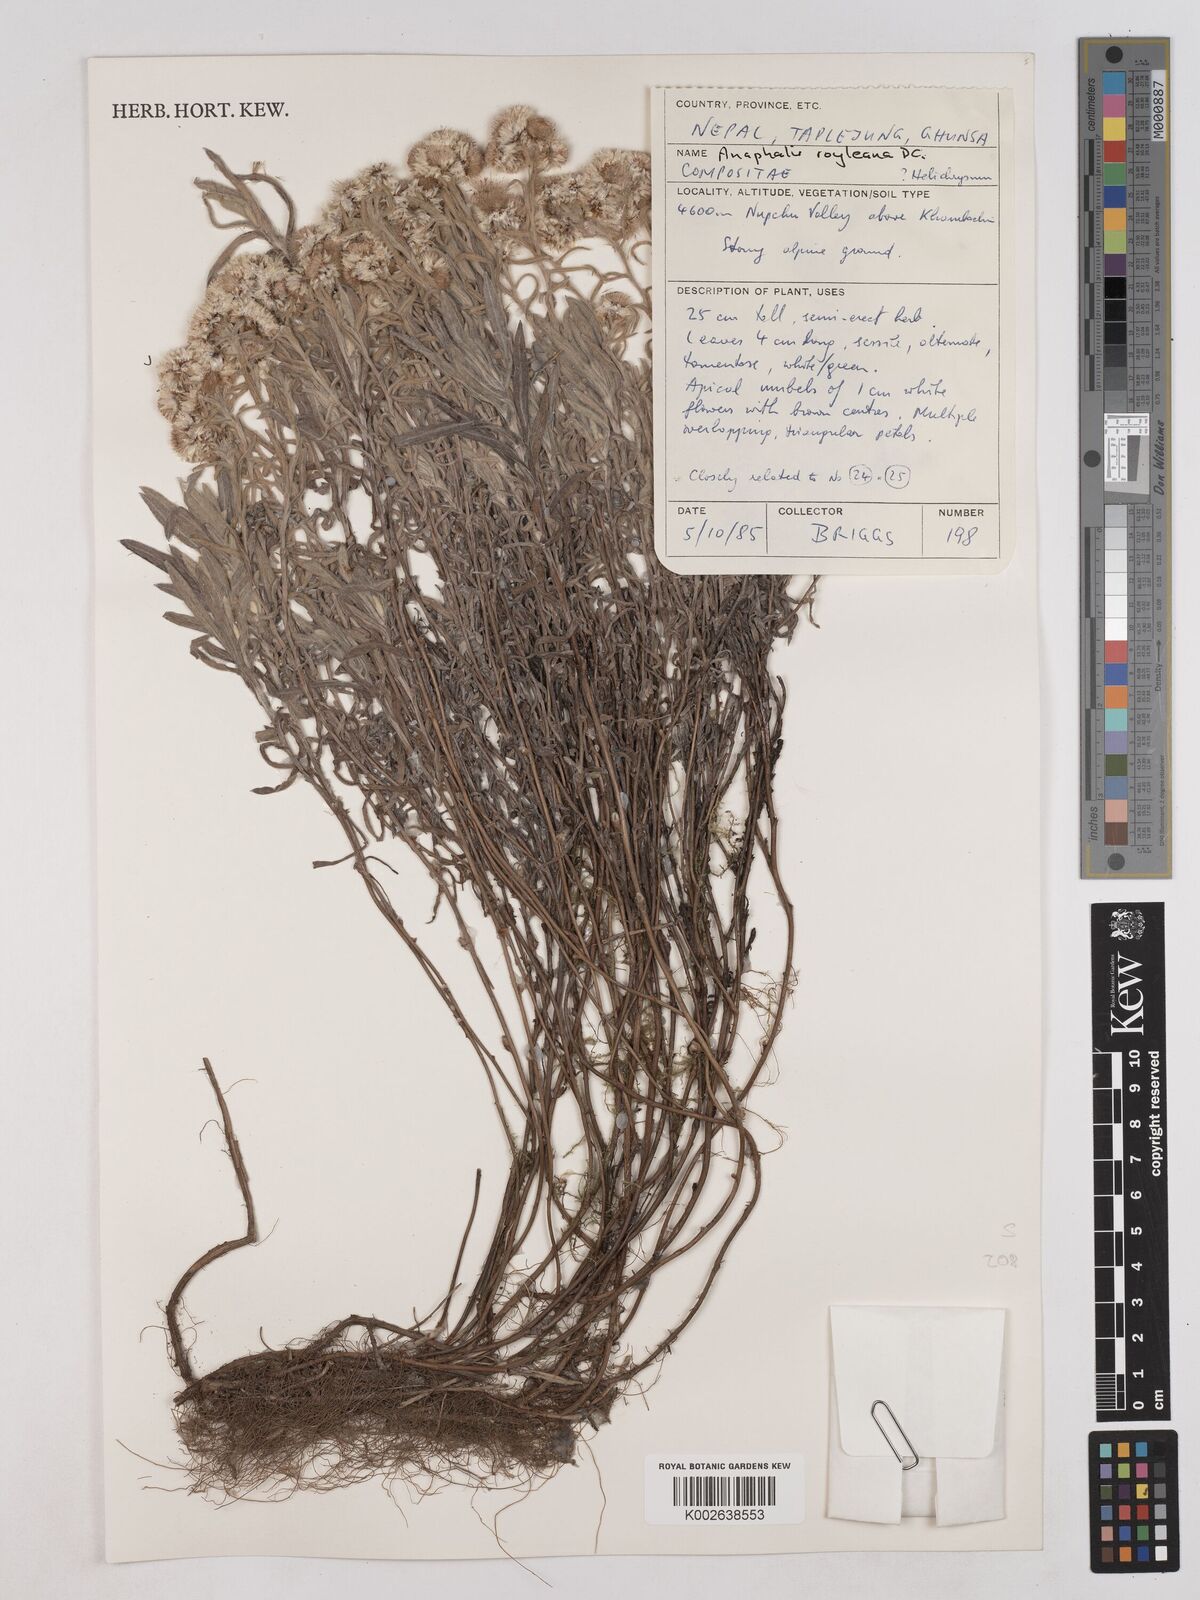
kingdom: Plantae
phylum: Tracheophyta
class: Magnoliopsida
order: Asterales
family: Asteraceae
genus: Anaphalis
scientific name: Anaphalis royleana
